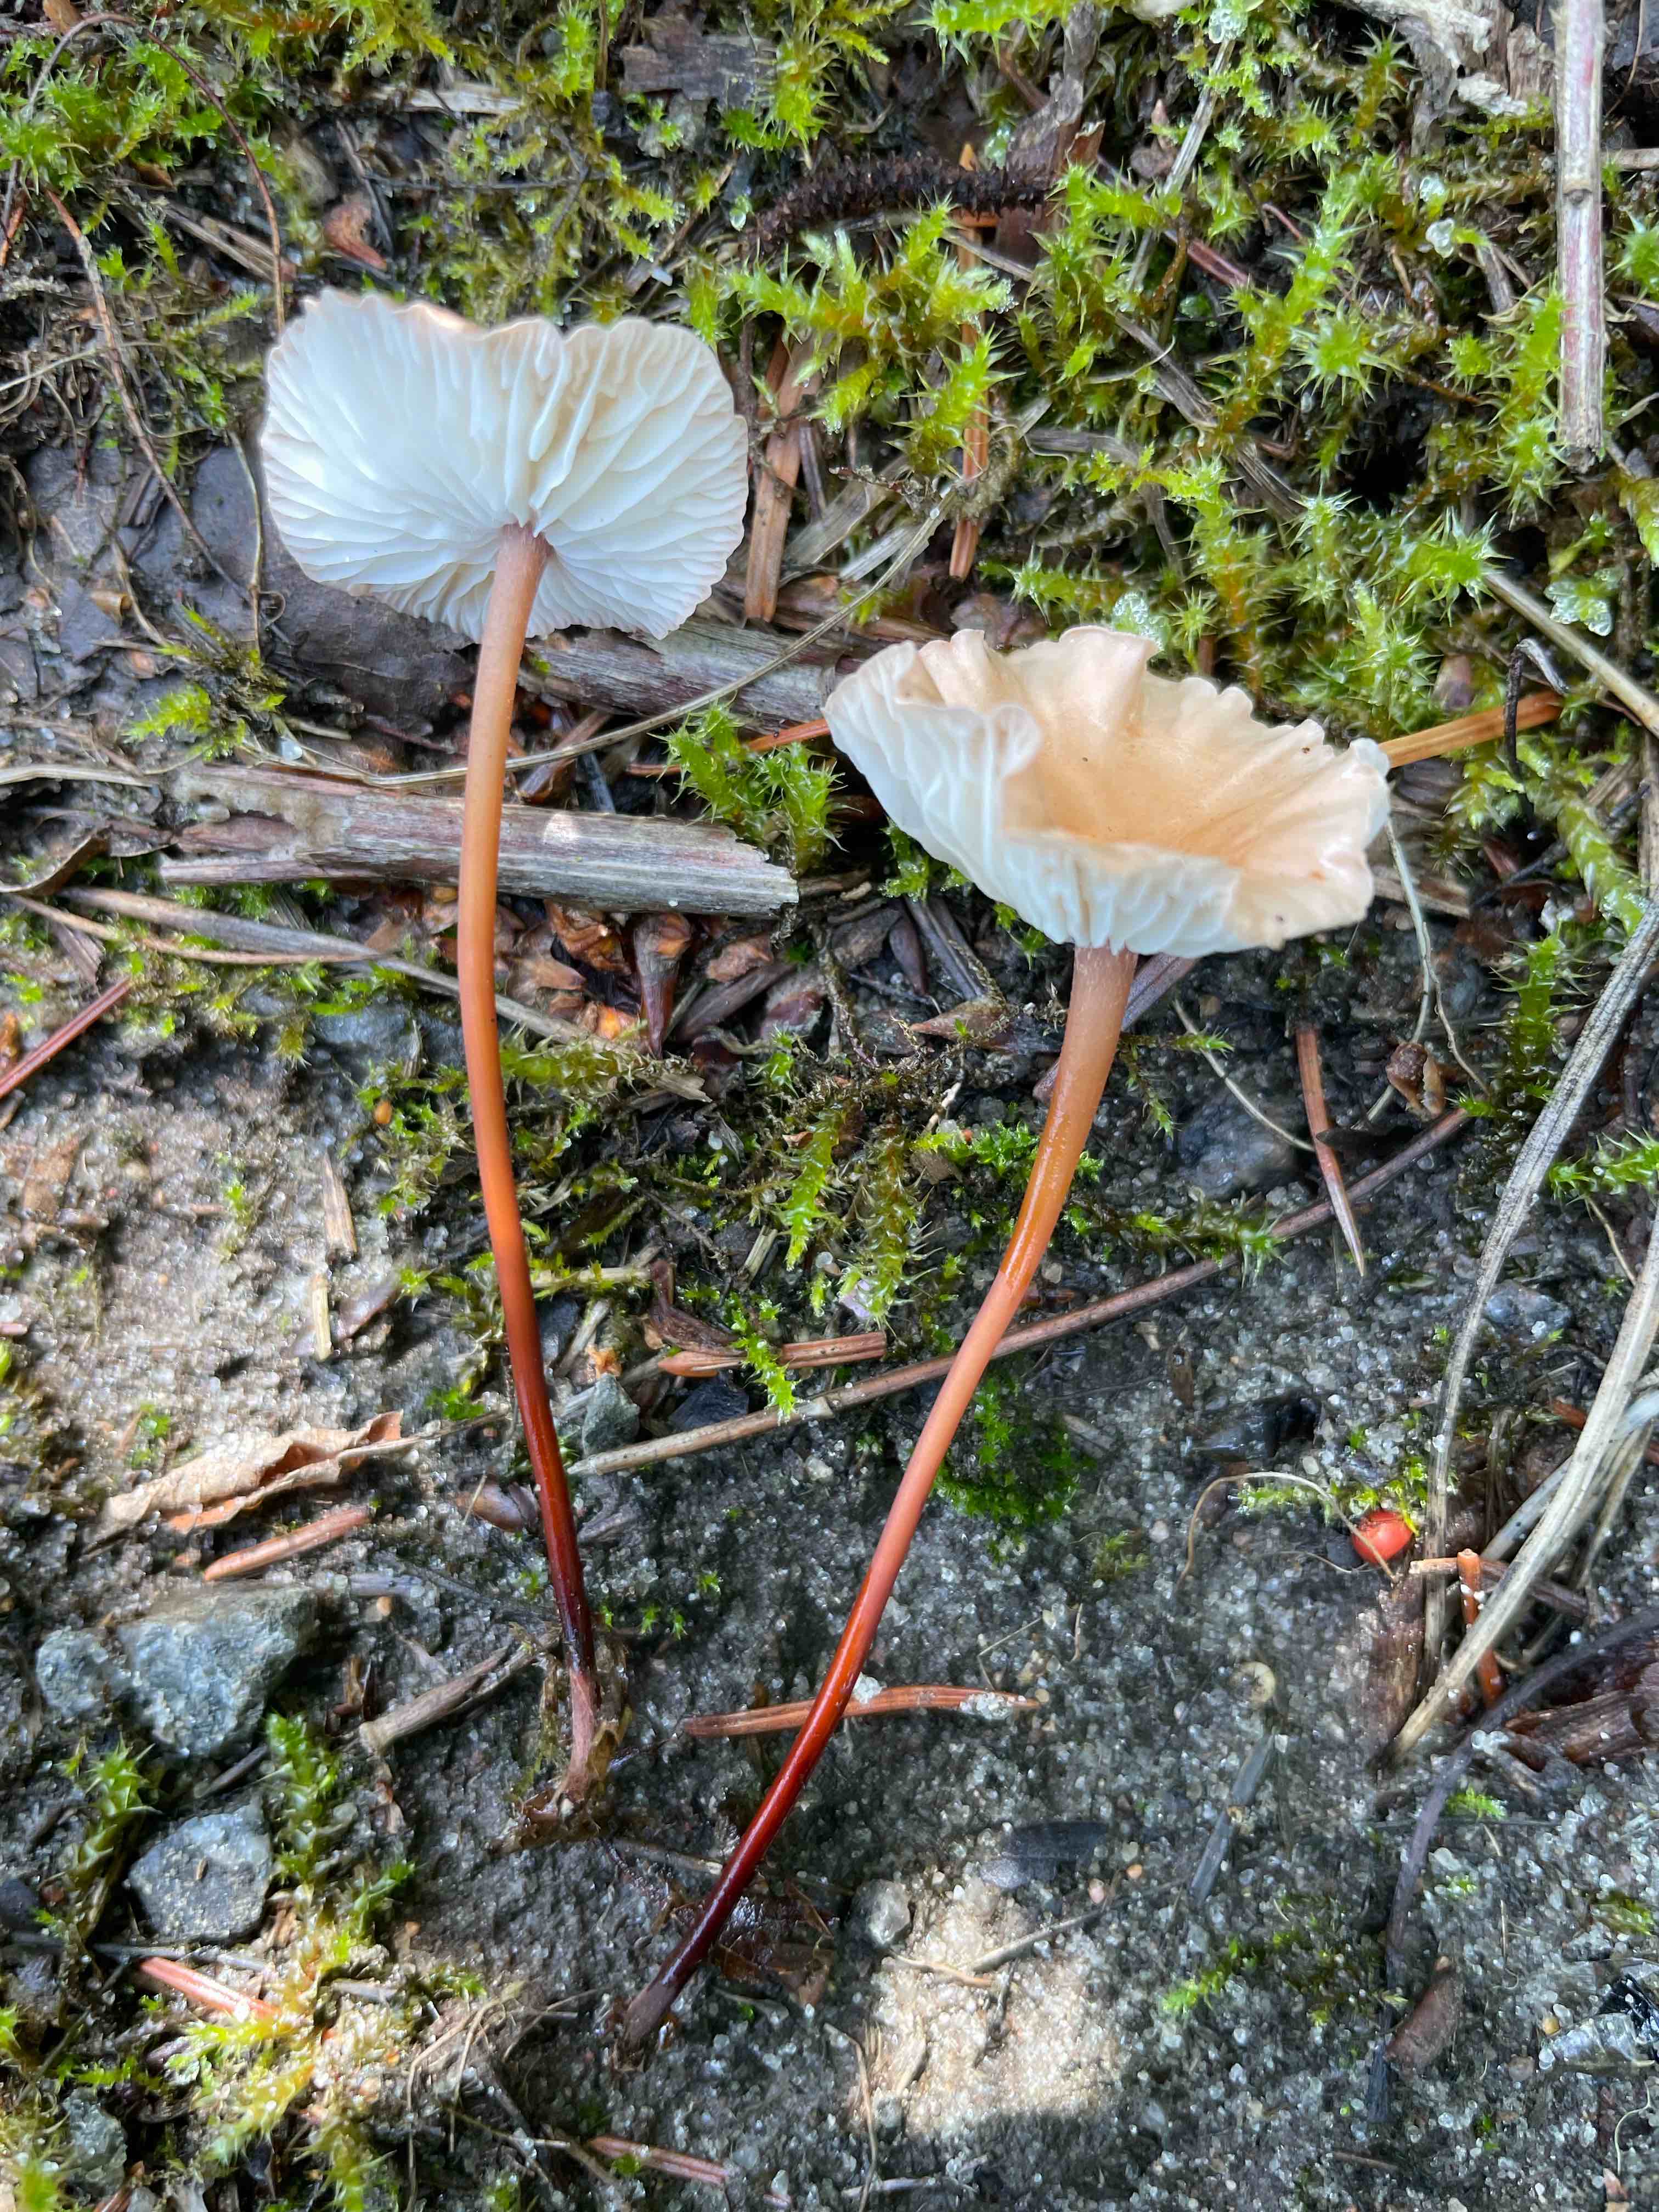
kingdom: Fungi
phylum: Basidiomycota
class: Agaricomycetes
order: Agaricales
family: Omphalotaceae
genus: Mycetinis
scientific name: Mycetinis scorodonius
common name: lille løghat
